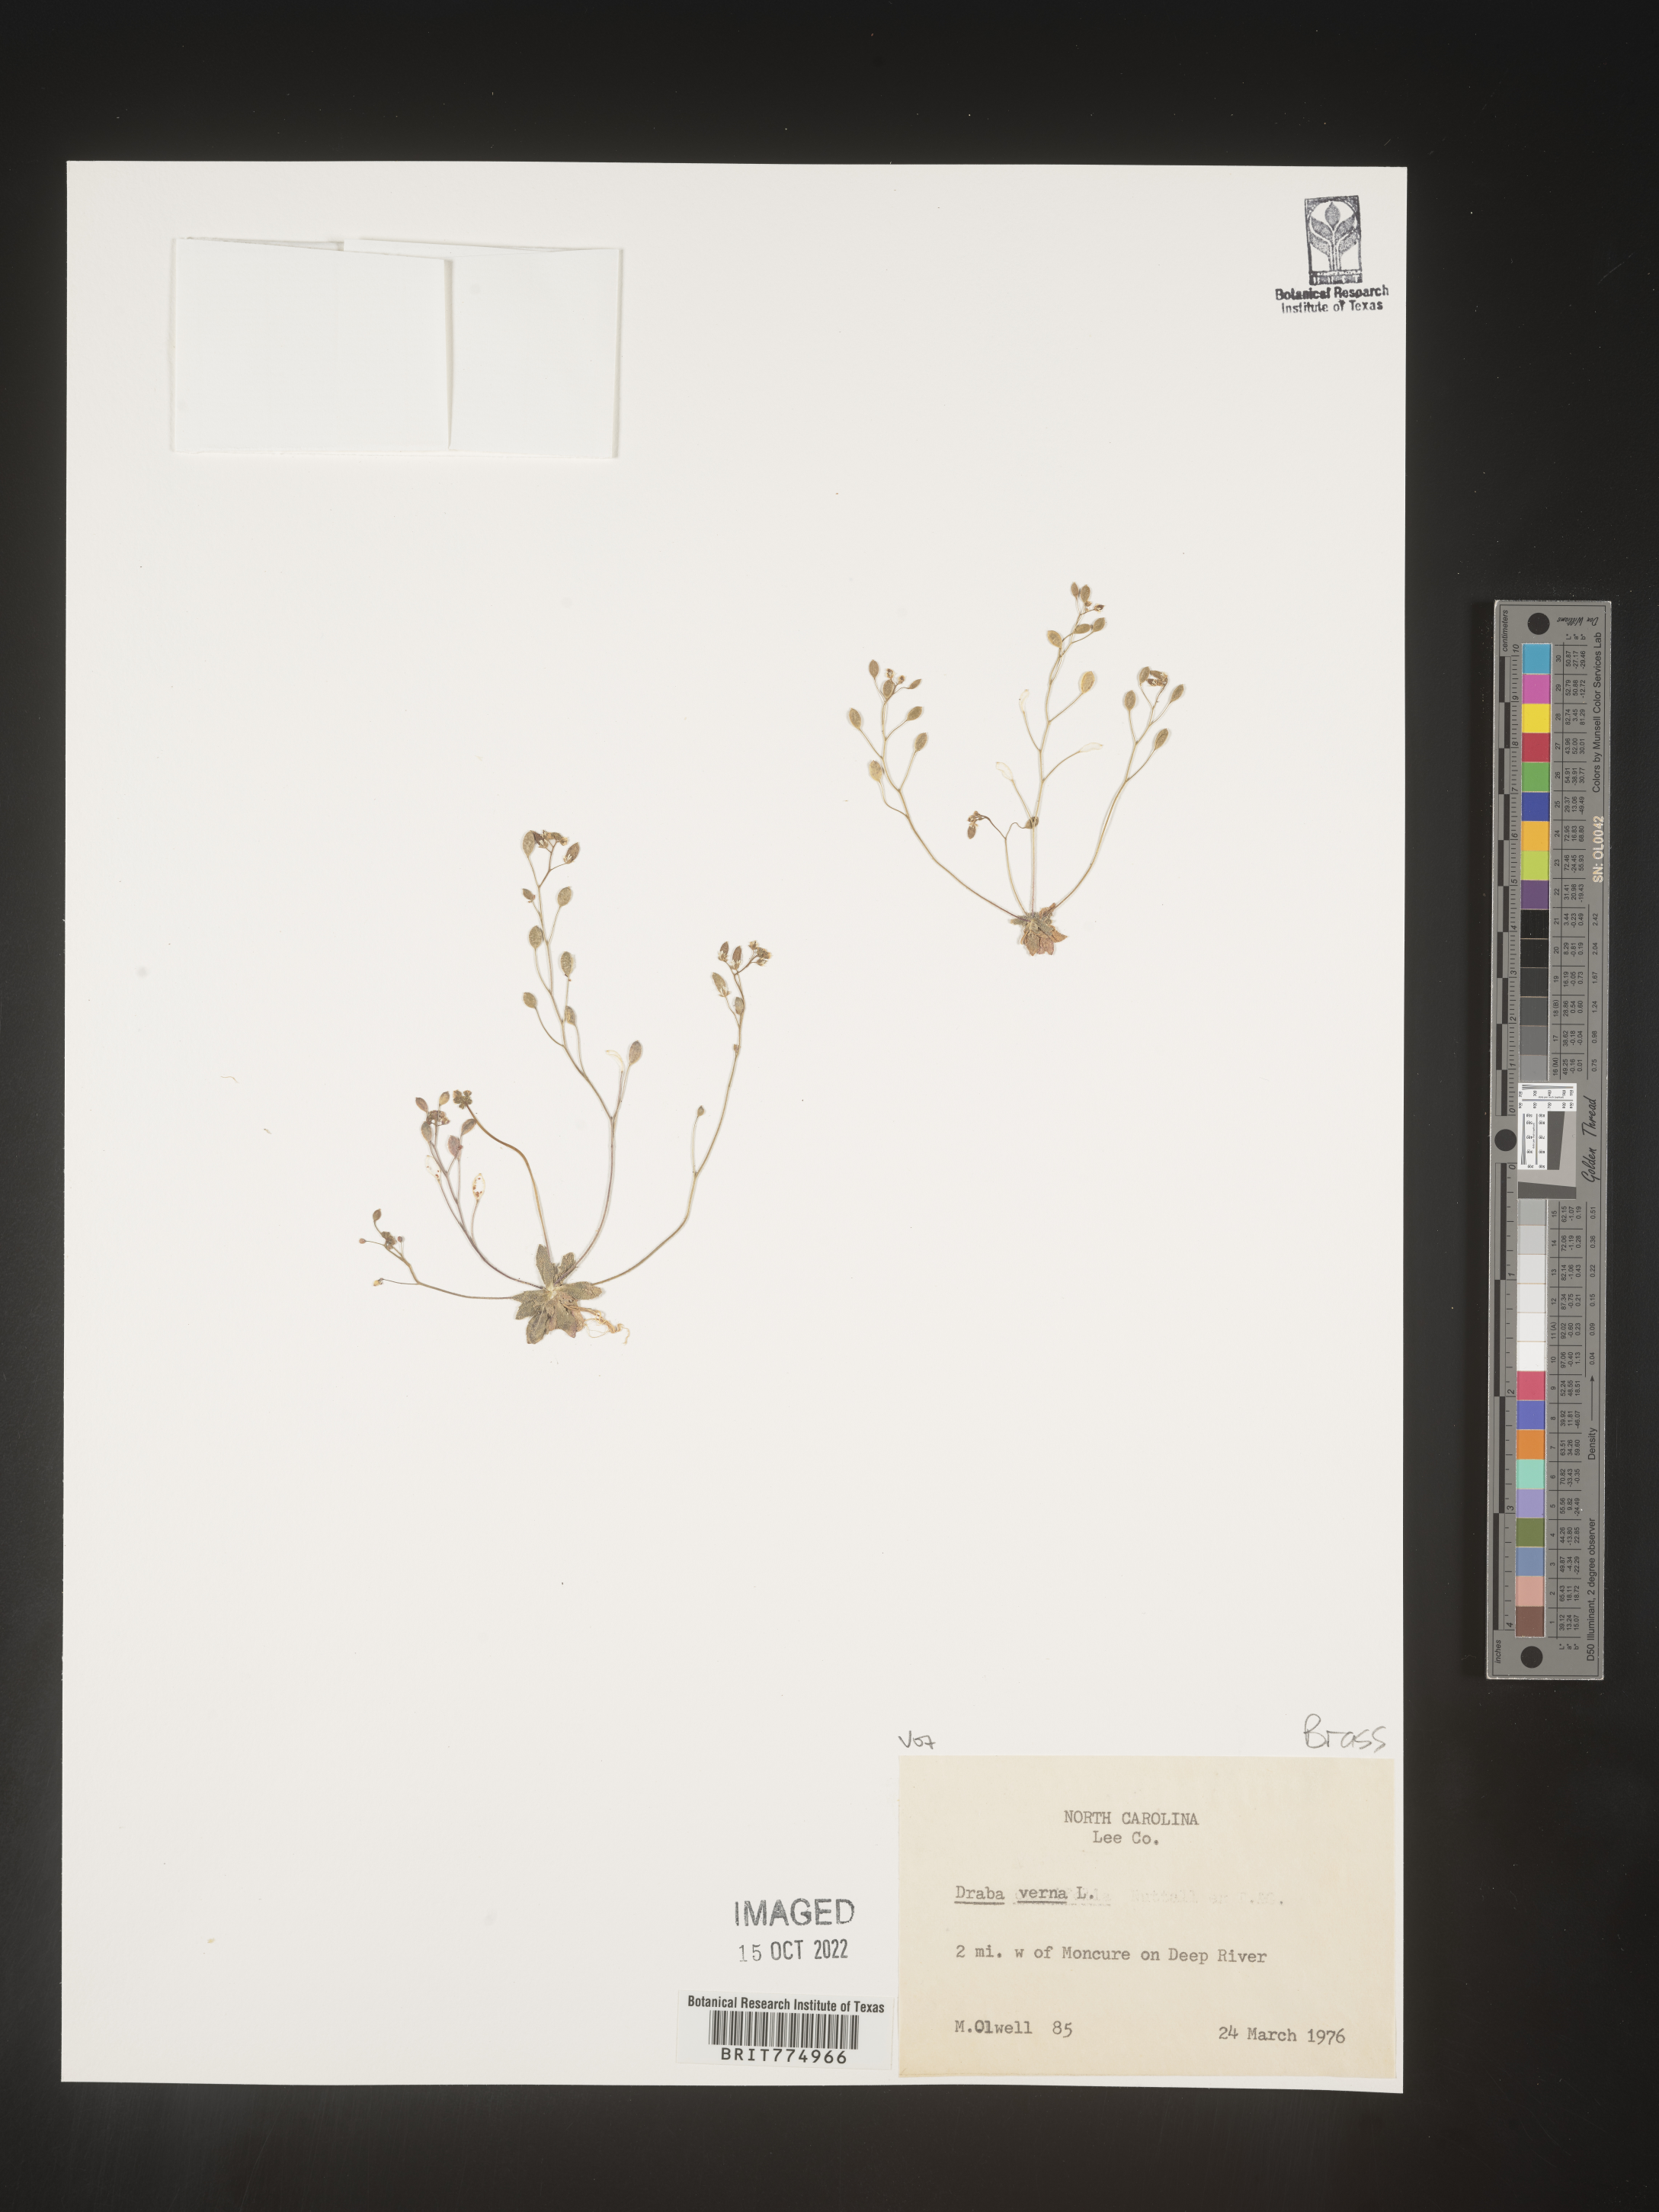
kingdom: Plantae
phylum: Tracheophyta
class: Magnoliopsida
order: Brassicales
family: Brassicaceae
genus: Draba
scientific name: Draba verna
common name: Spring draba
